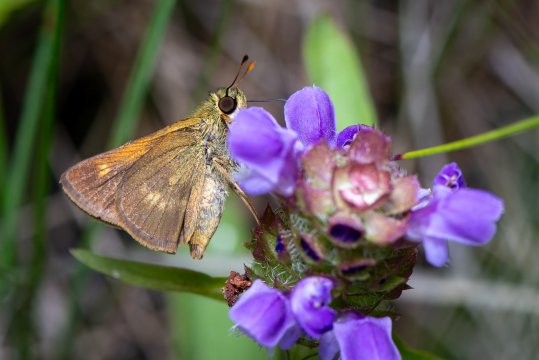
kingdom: Animalia
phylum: Arthropoda
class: Insecta
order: Lepidoptera
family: Hesperiidae
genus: Polites
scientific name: Polites egeremet
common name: Northern Broken-Dash
